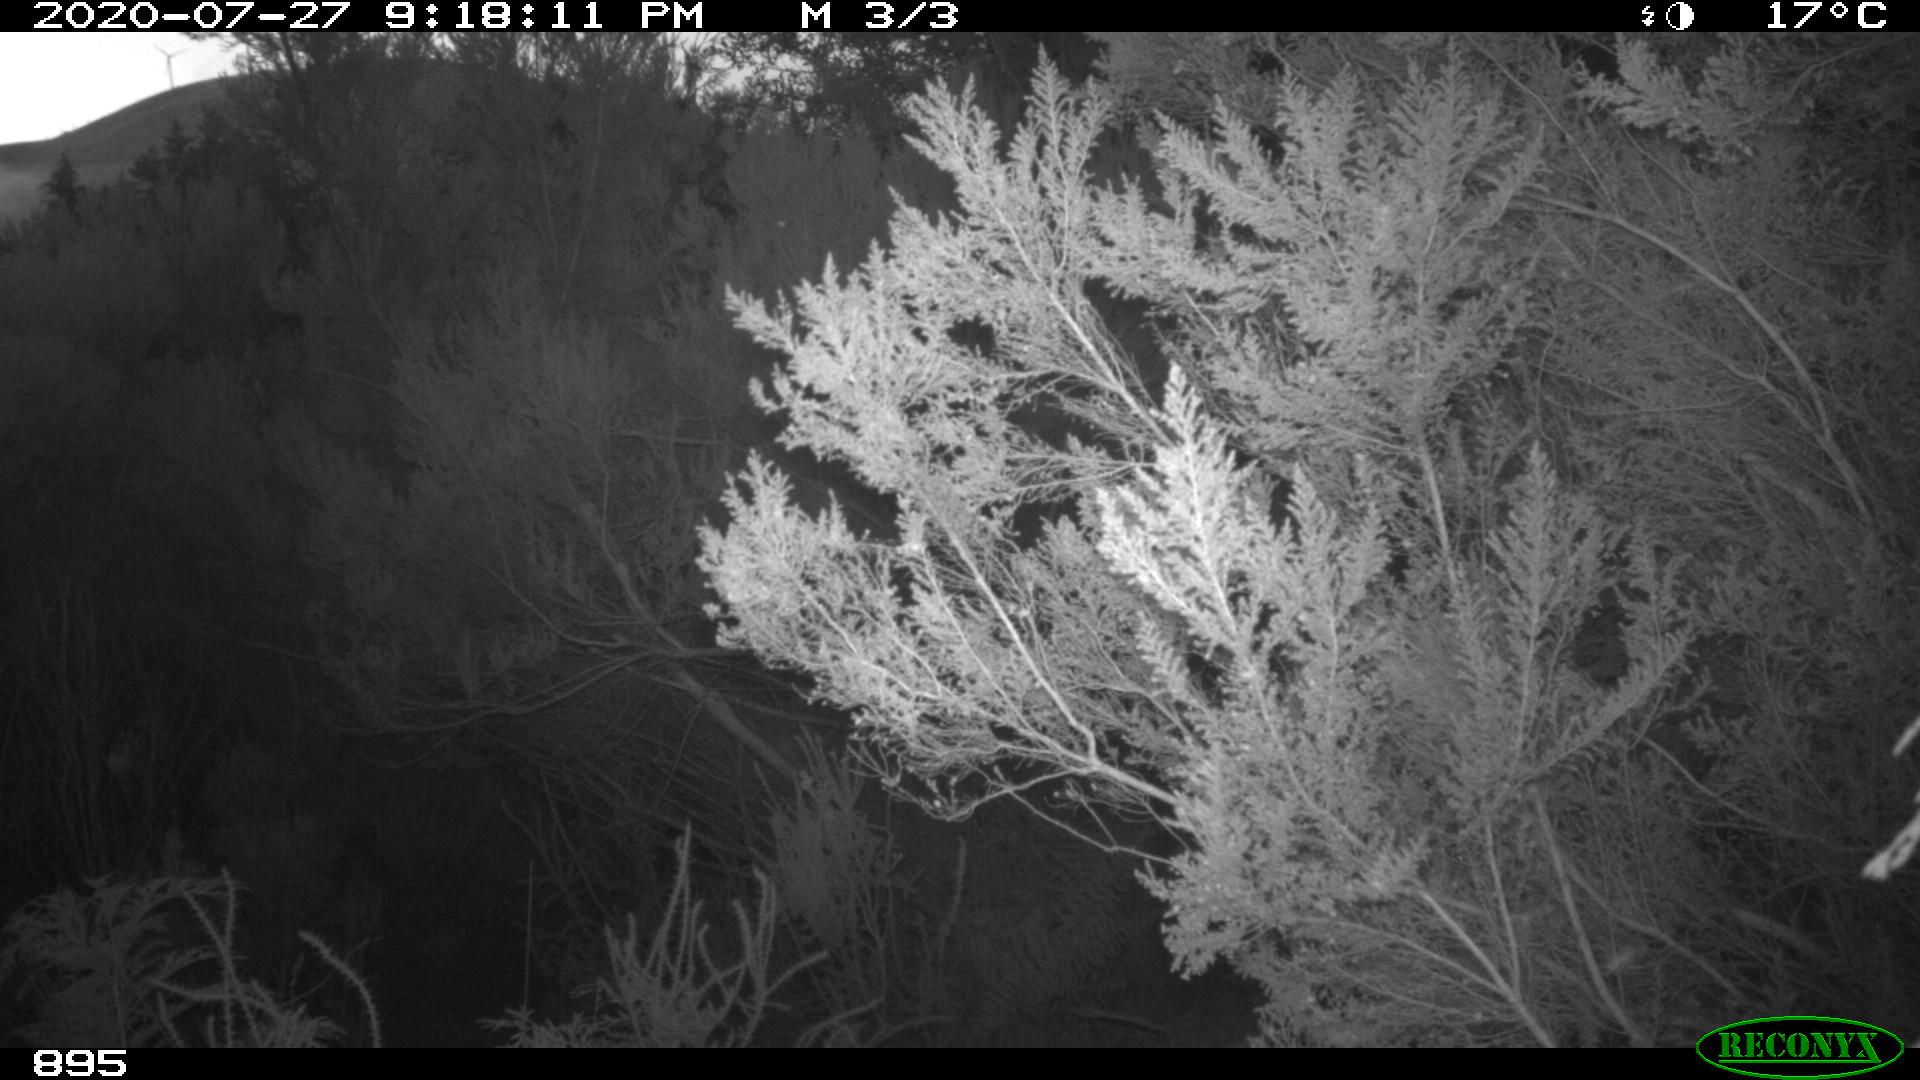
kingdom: Animalia
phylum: Chordata
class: Mammalia
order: Artiodactyla
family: Bovidae
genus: Bos
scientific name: Bos taurus
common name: Domesticated cattle
